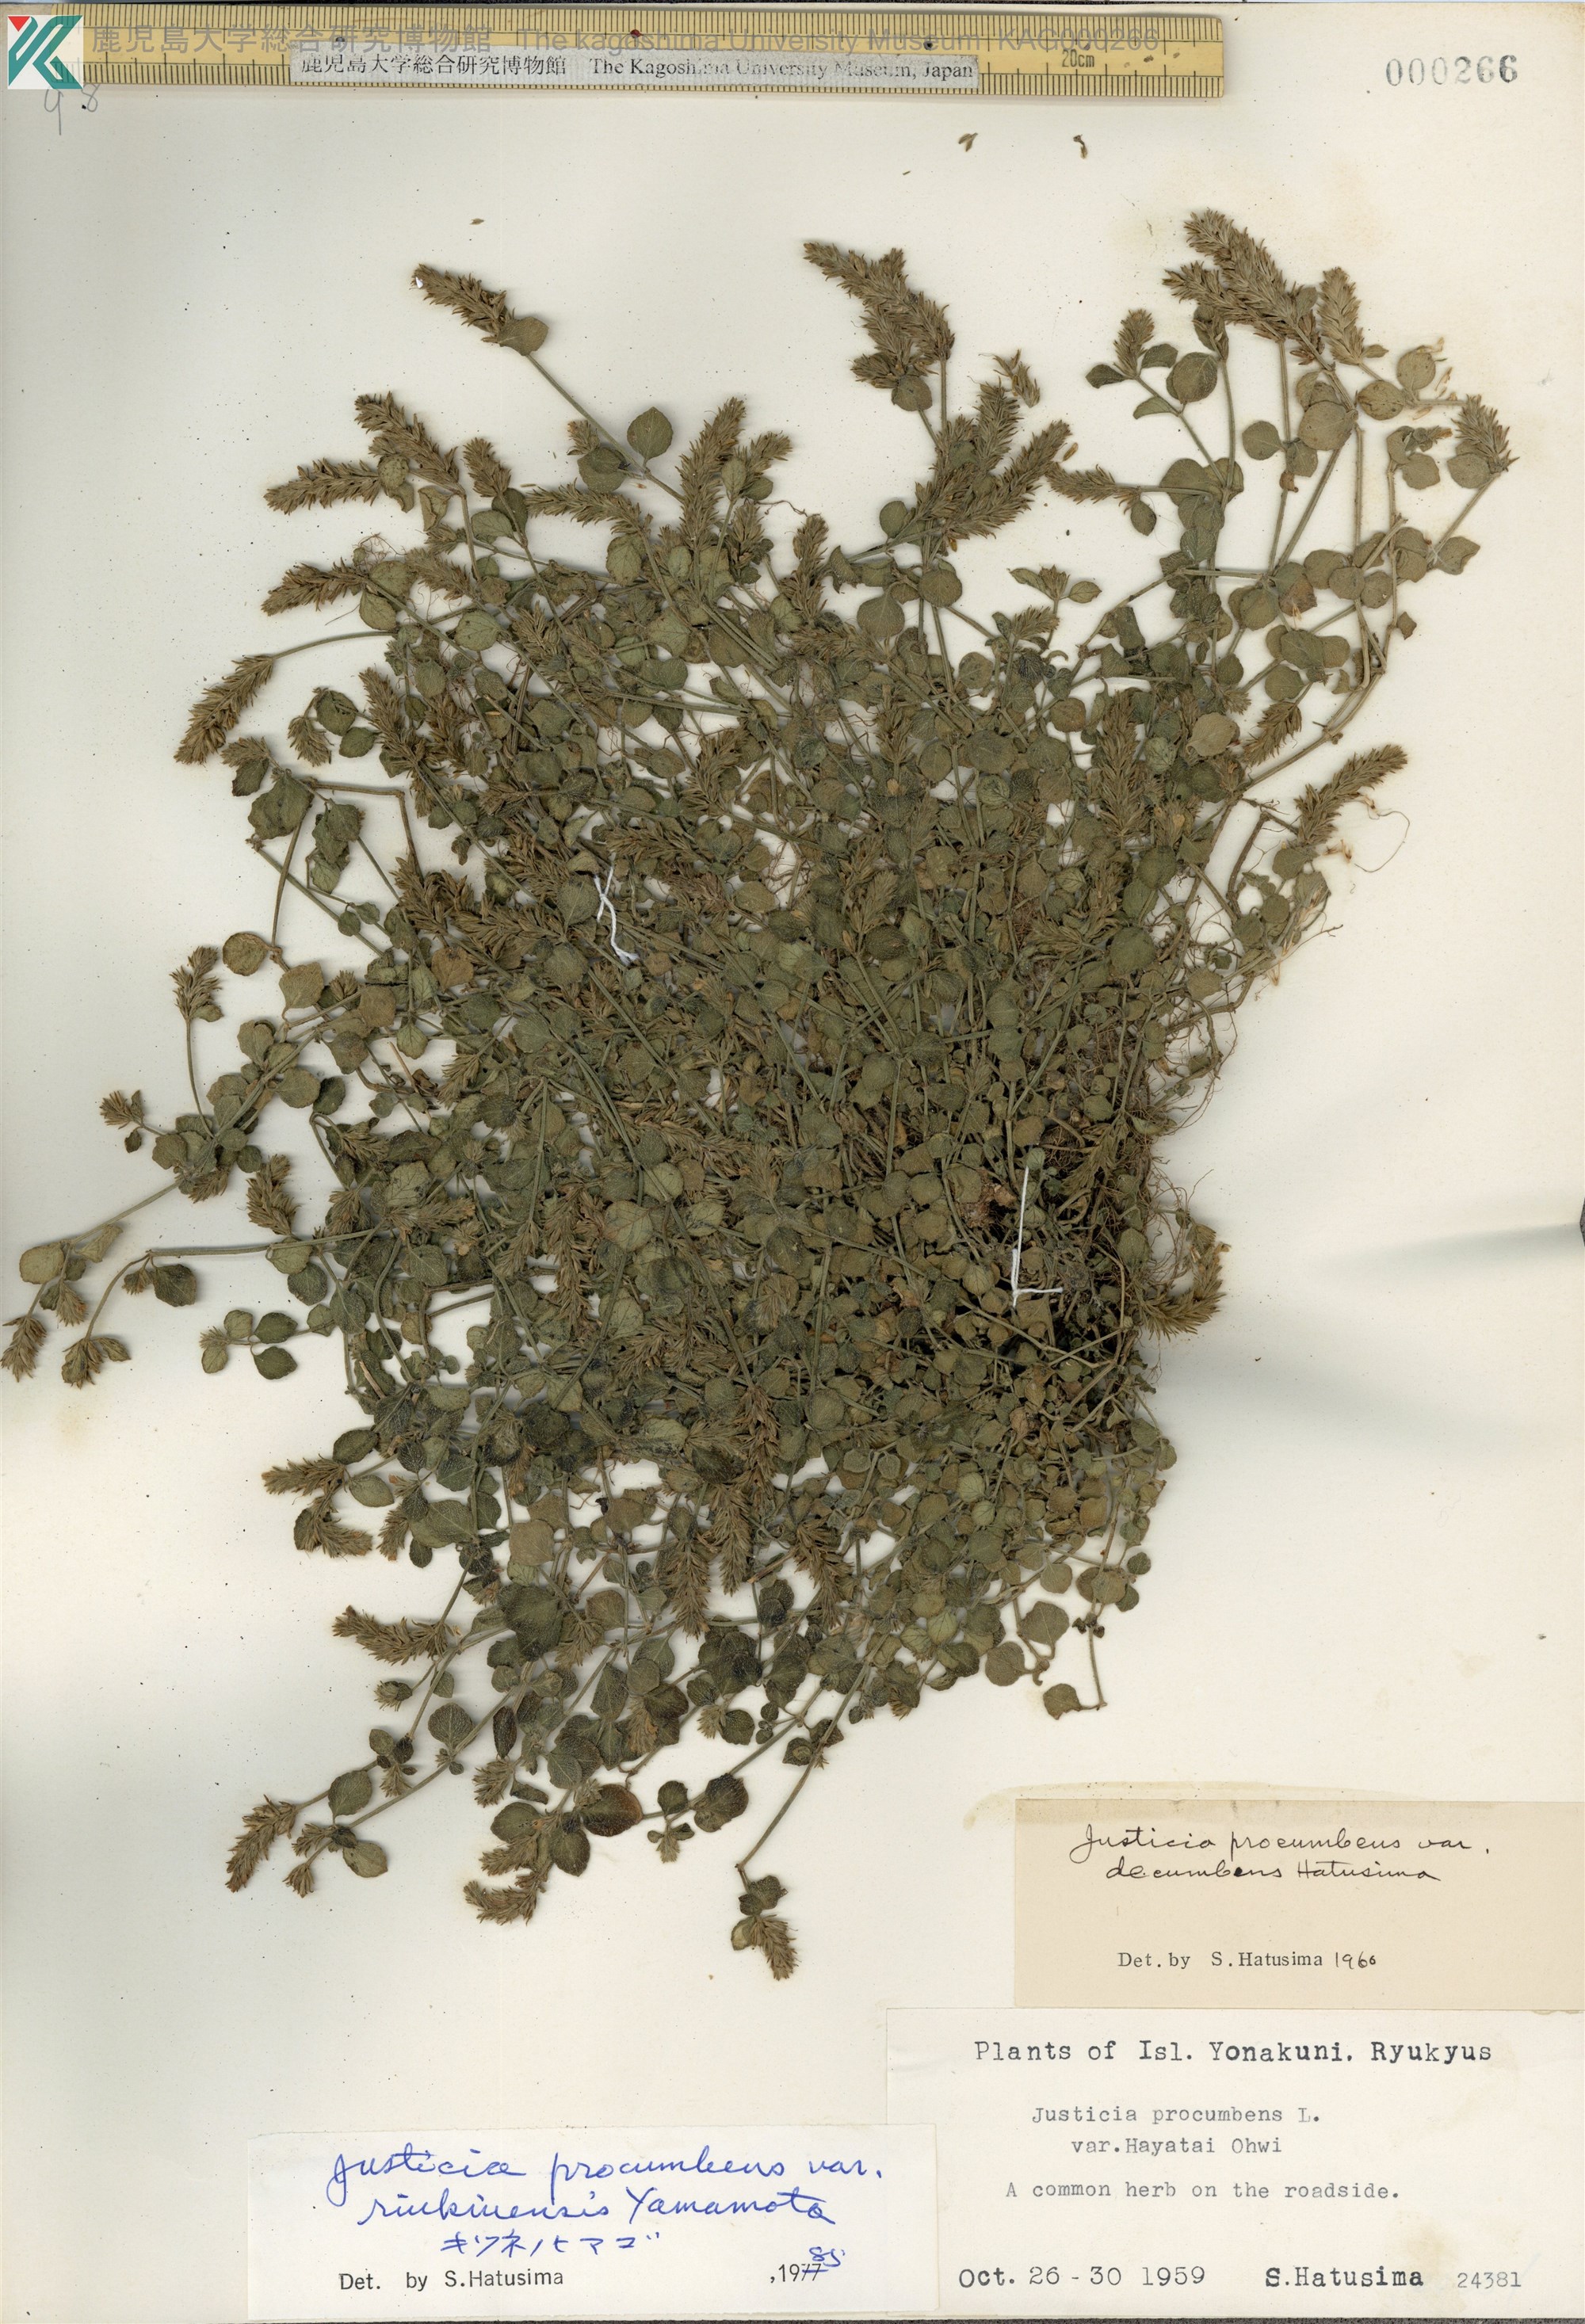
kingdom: Plantae
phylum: Tracheophyta
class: Magnoliopsida
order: Lamiales
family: Acanthaceae
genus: Rostellularia
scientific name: Rostellularia procumbens
